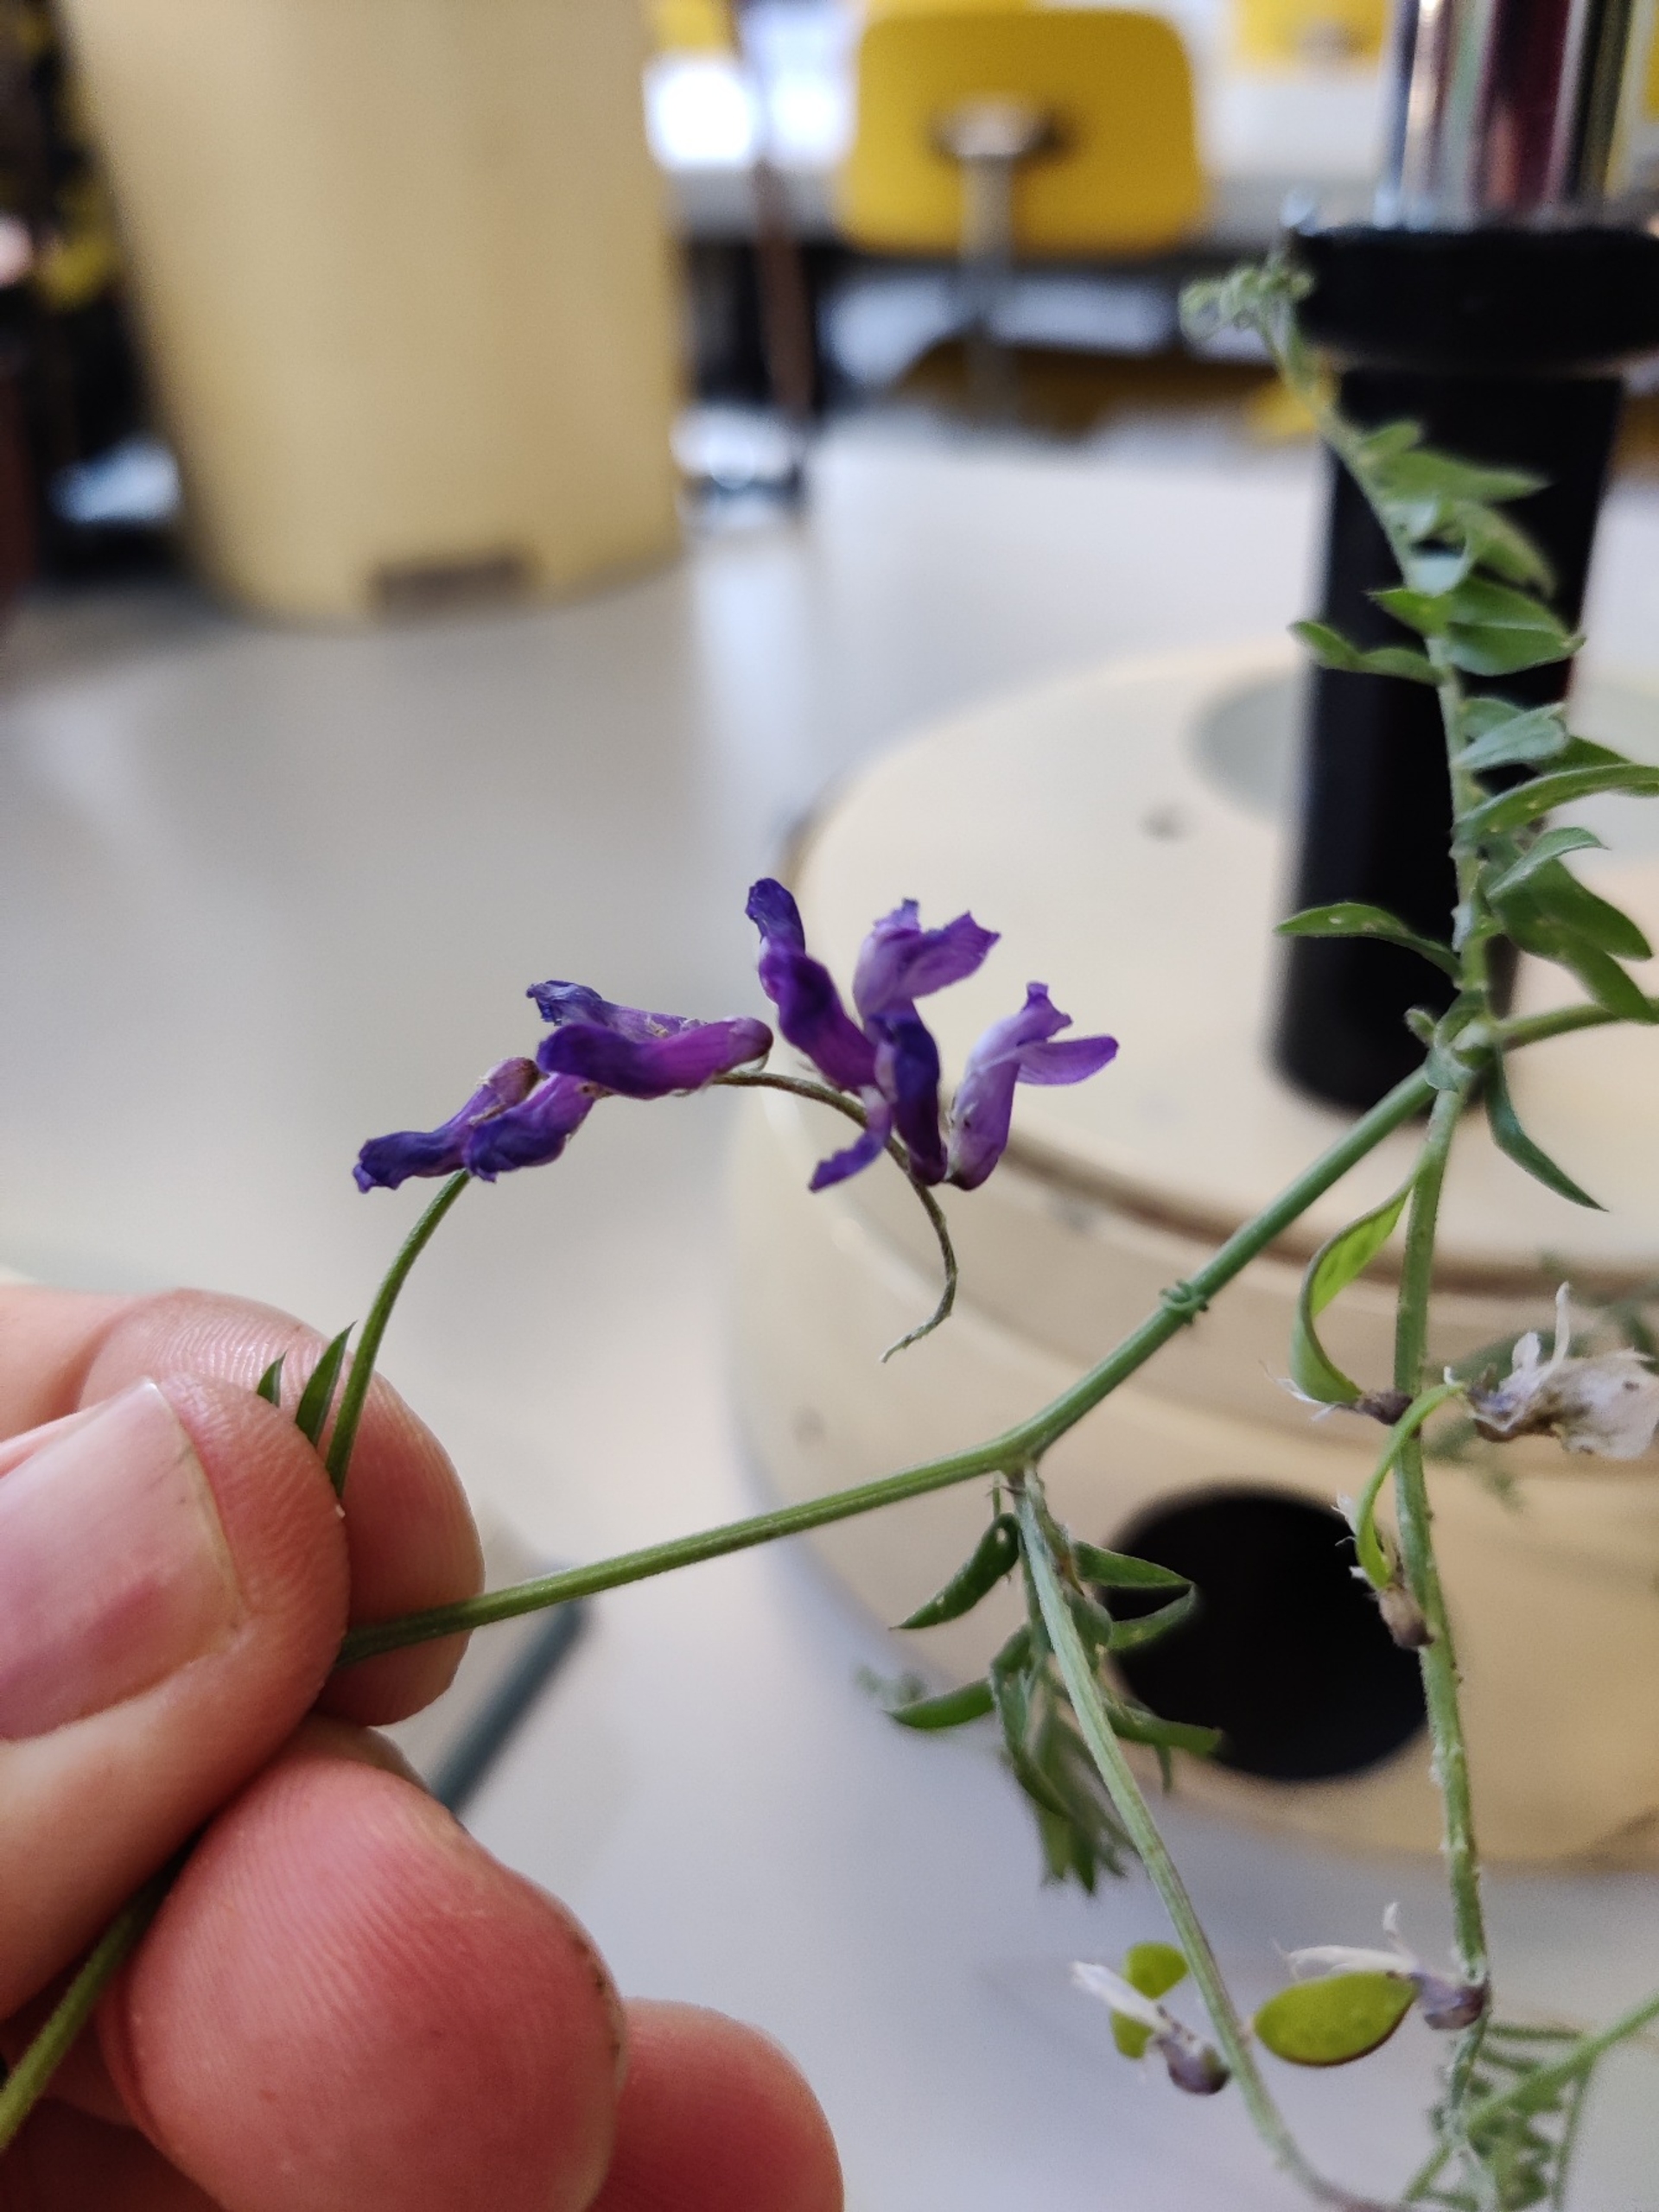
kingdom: Plantae
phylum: Tracheophyta
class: Magnoliopsida
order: Fabales
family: Fabaceae
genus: Vicia
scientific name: Vicia cracca
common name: Muse-vikke
